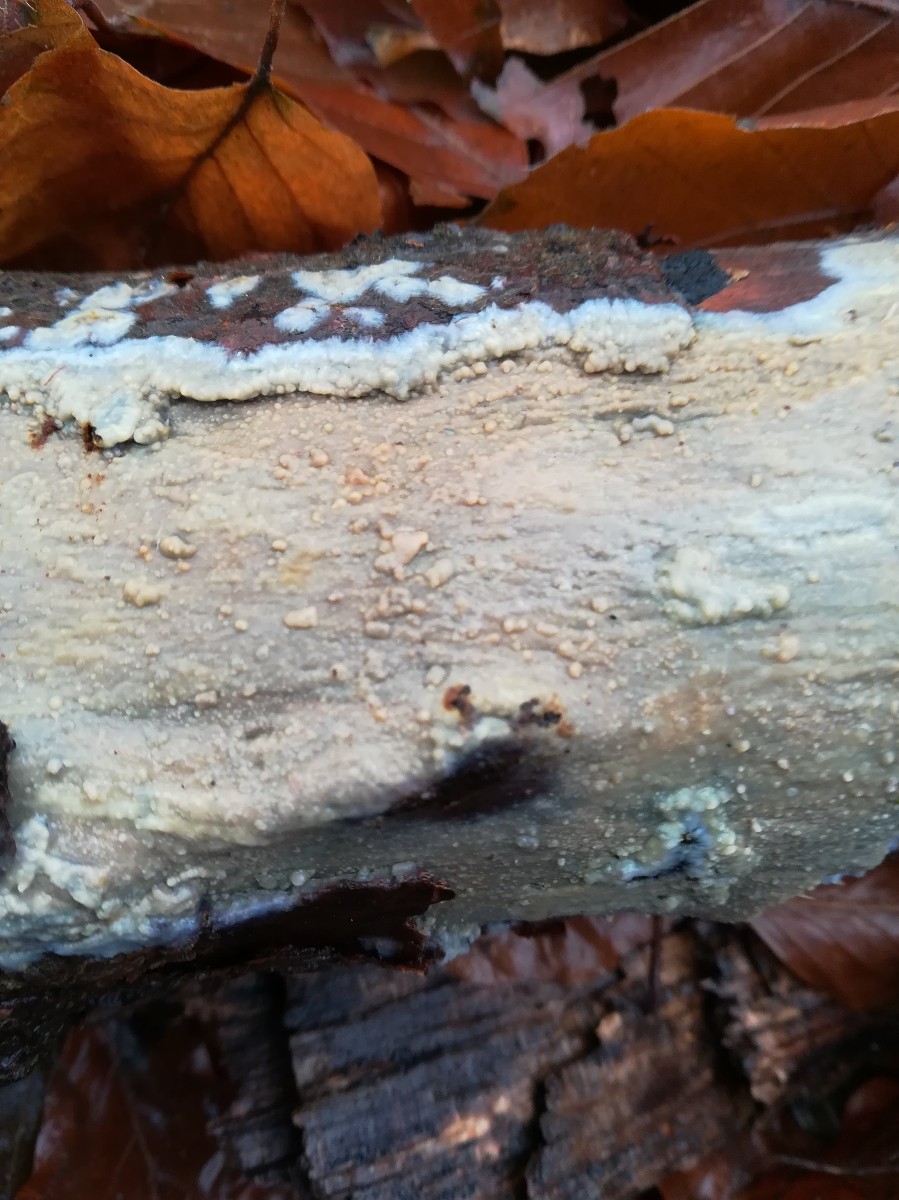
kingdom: Fungi
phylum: Basidiomycota
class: Agaricomycetes
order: Agaricales
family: Radulomycetaceae
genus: Radulomyces
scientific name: Radulomyces confluens
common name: glat naftalinskind
